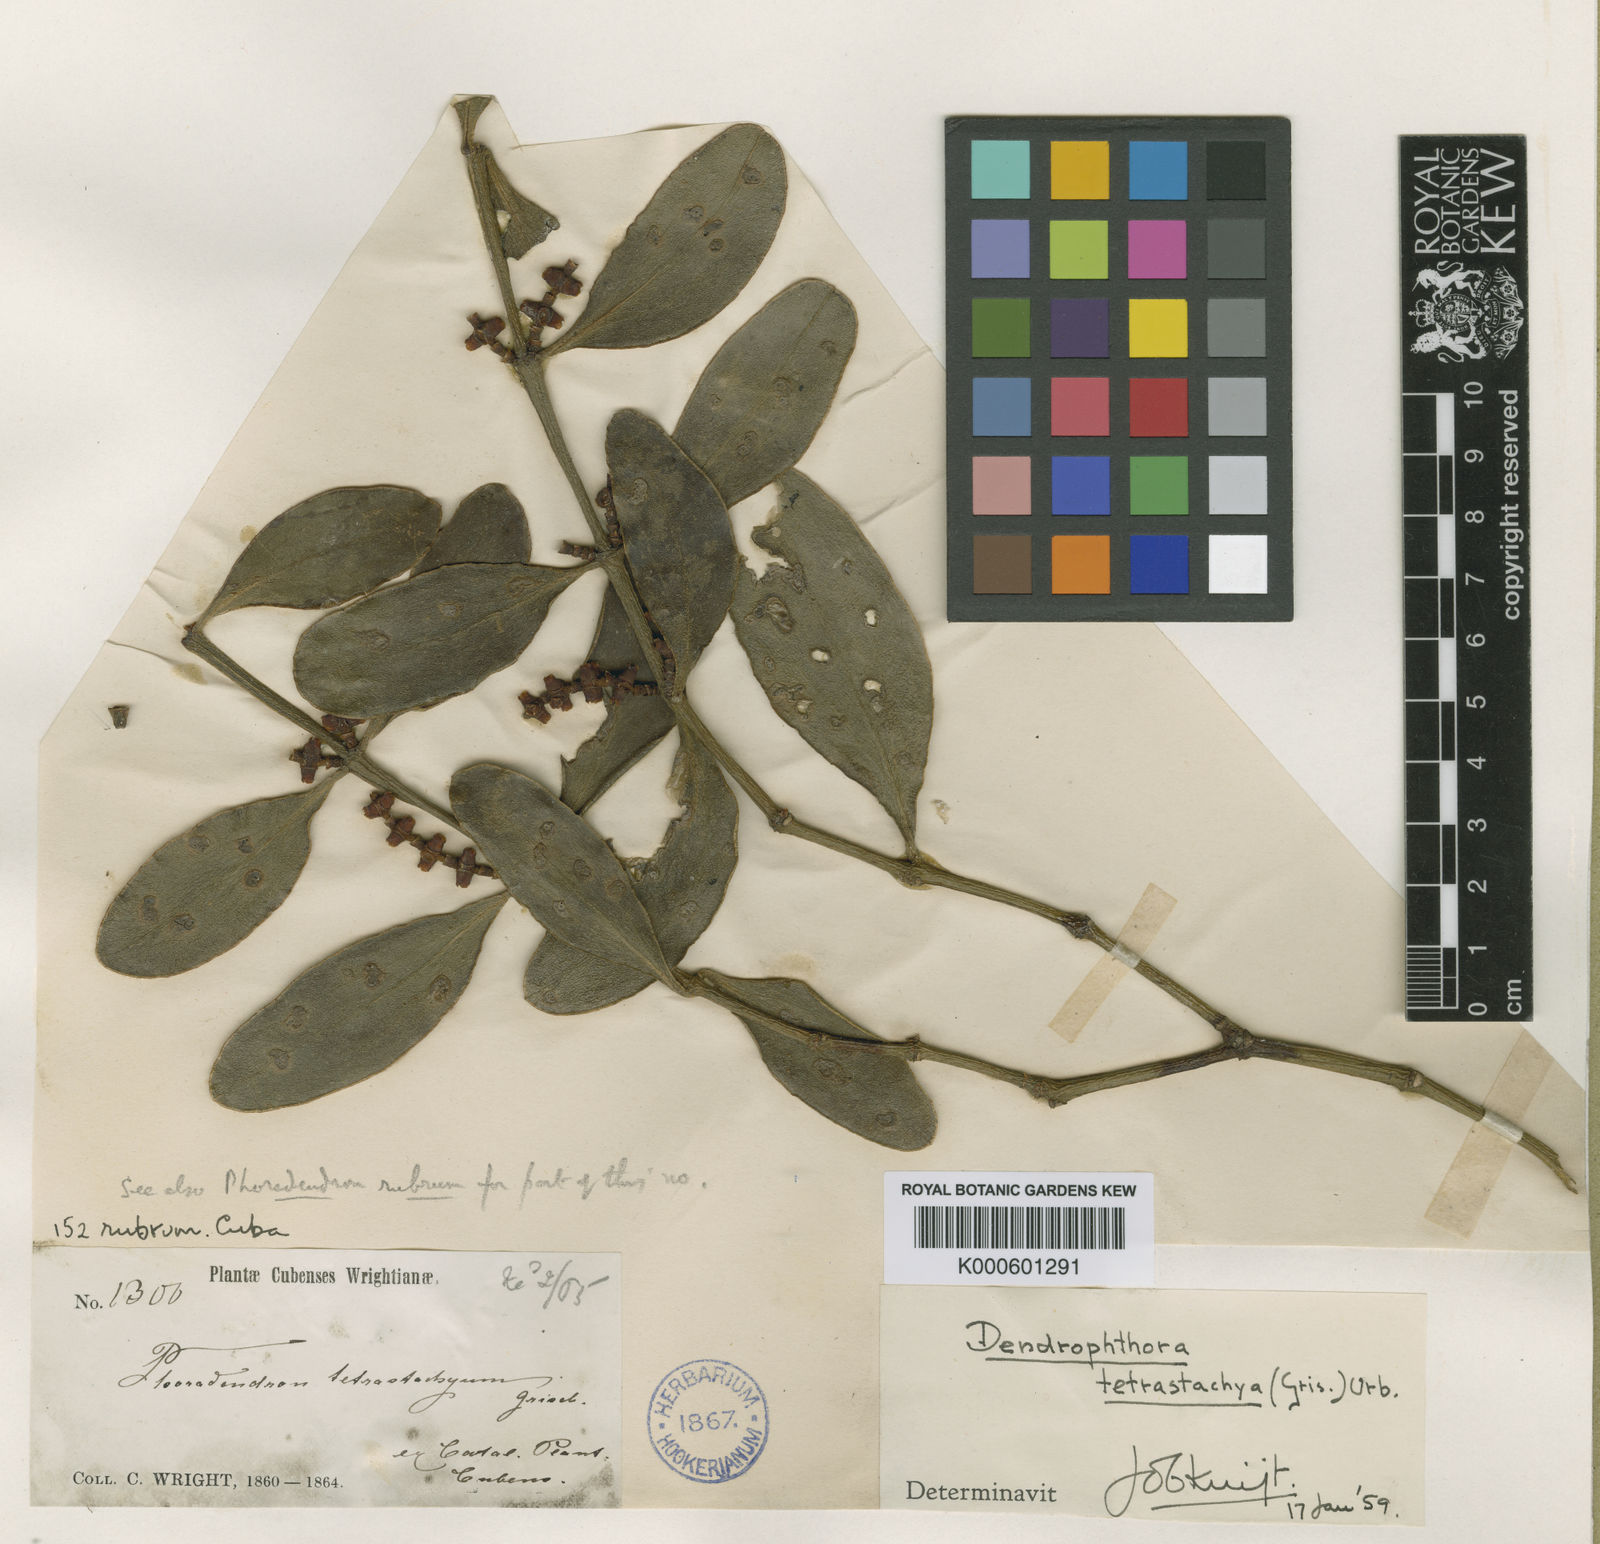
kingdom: Plantae
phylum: Tracheophyta
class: Magnoliopsida
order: Santalales
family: Viscaceae
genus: Dendrophthora
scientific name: Dendrophthora tetrastachya
